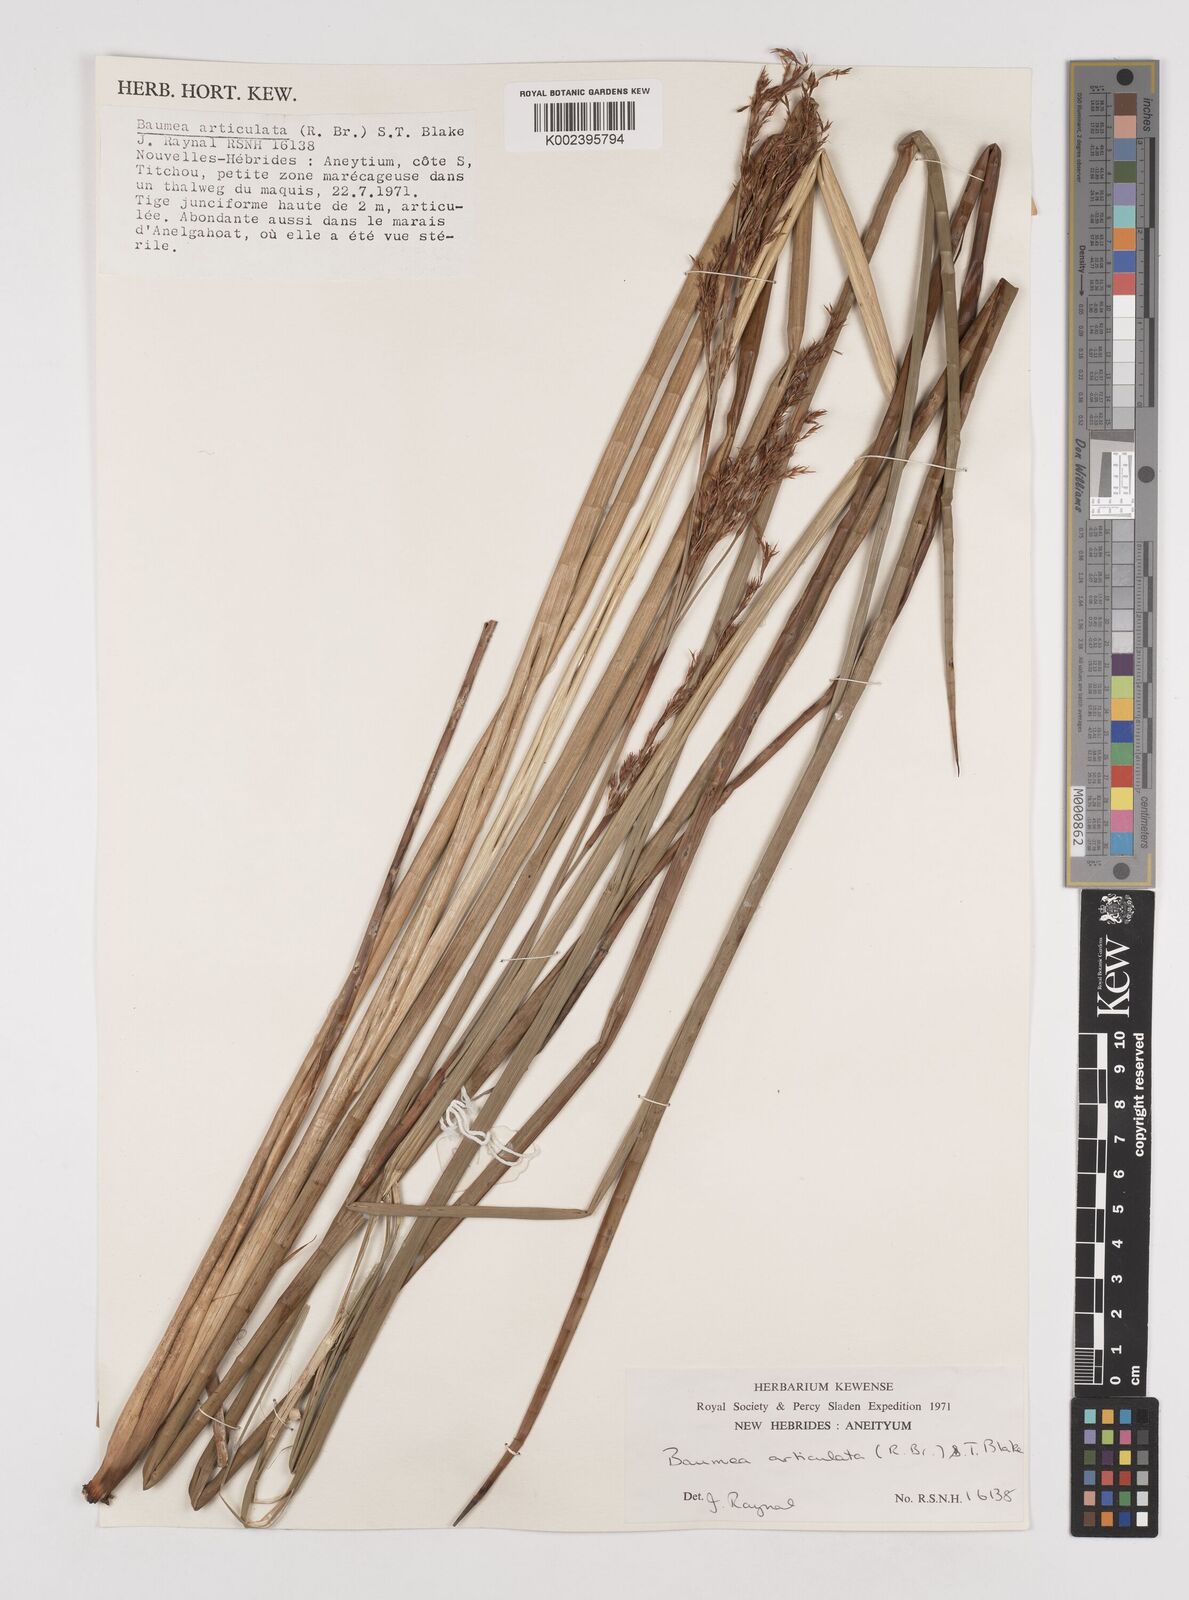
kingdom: Plantae
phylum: Tracheophyta
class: Liliopsida
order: Poales
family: Cyperaceae
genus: Machaerina
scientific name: Machaerina articulata
